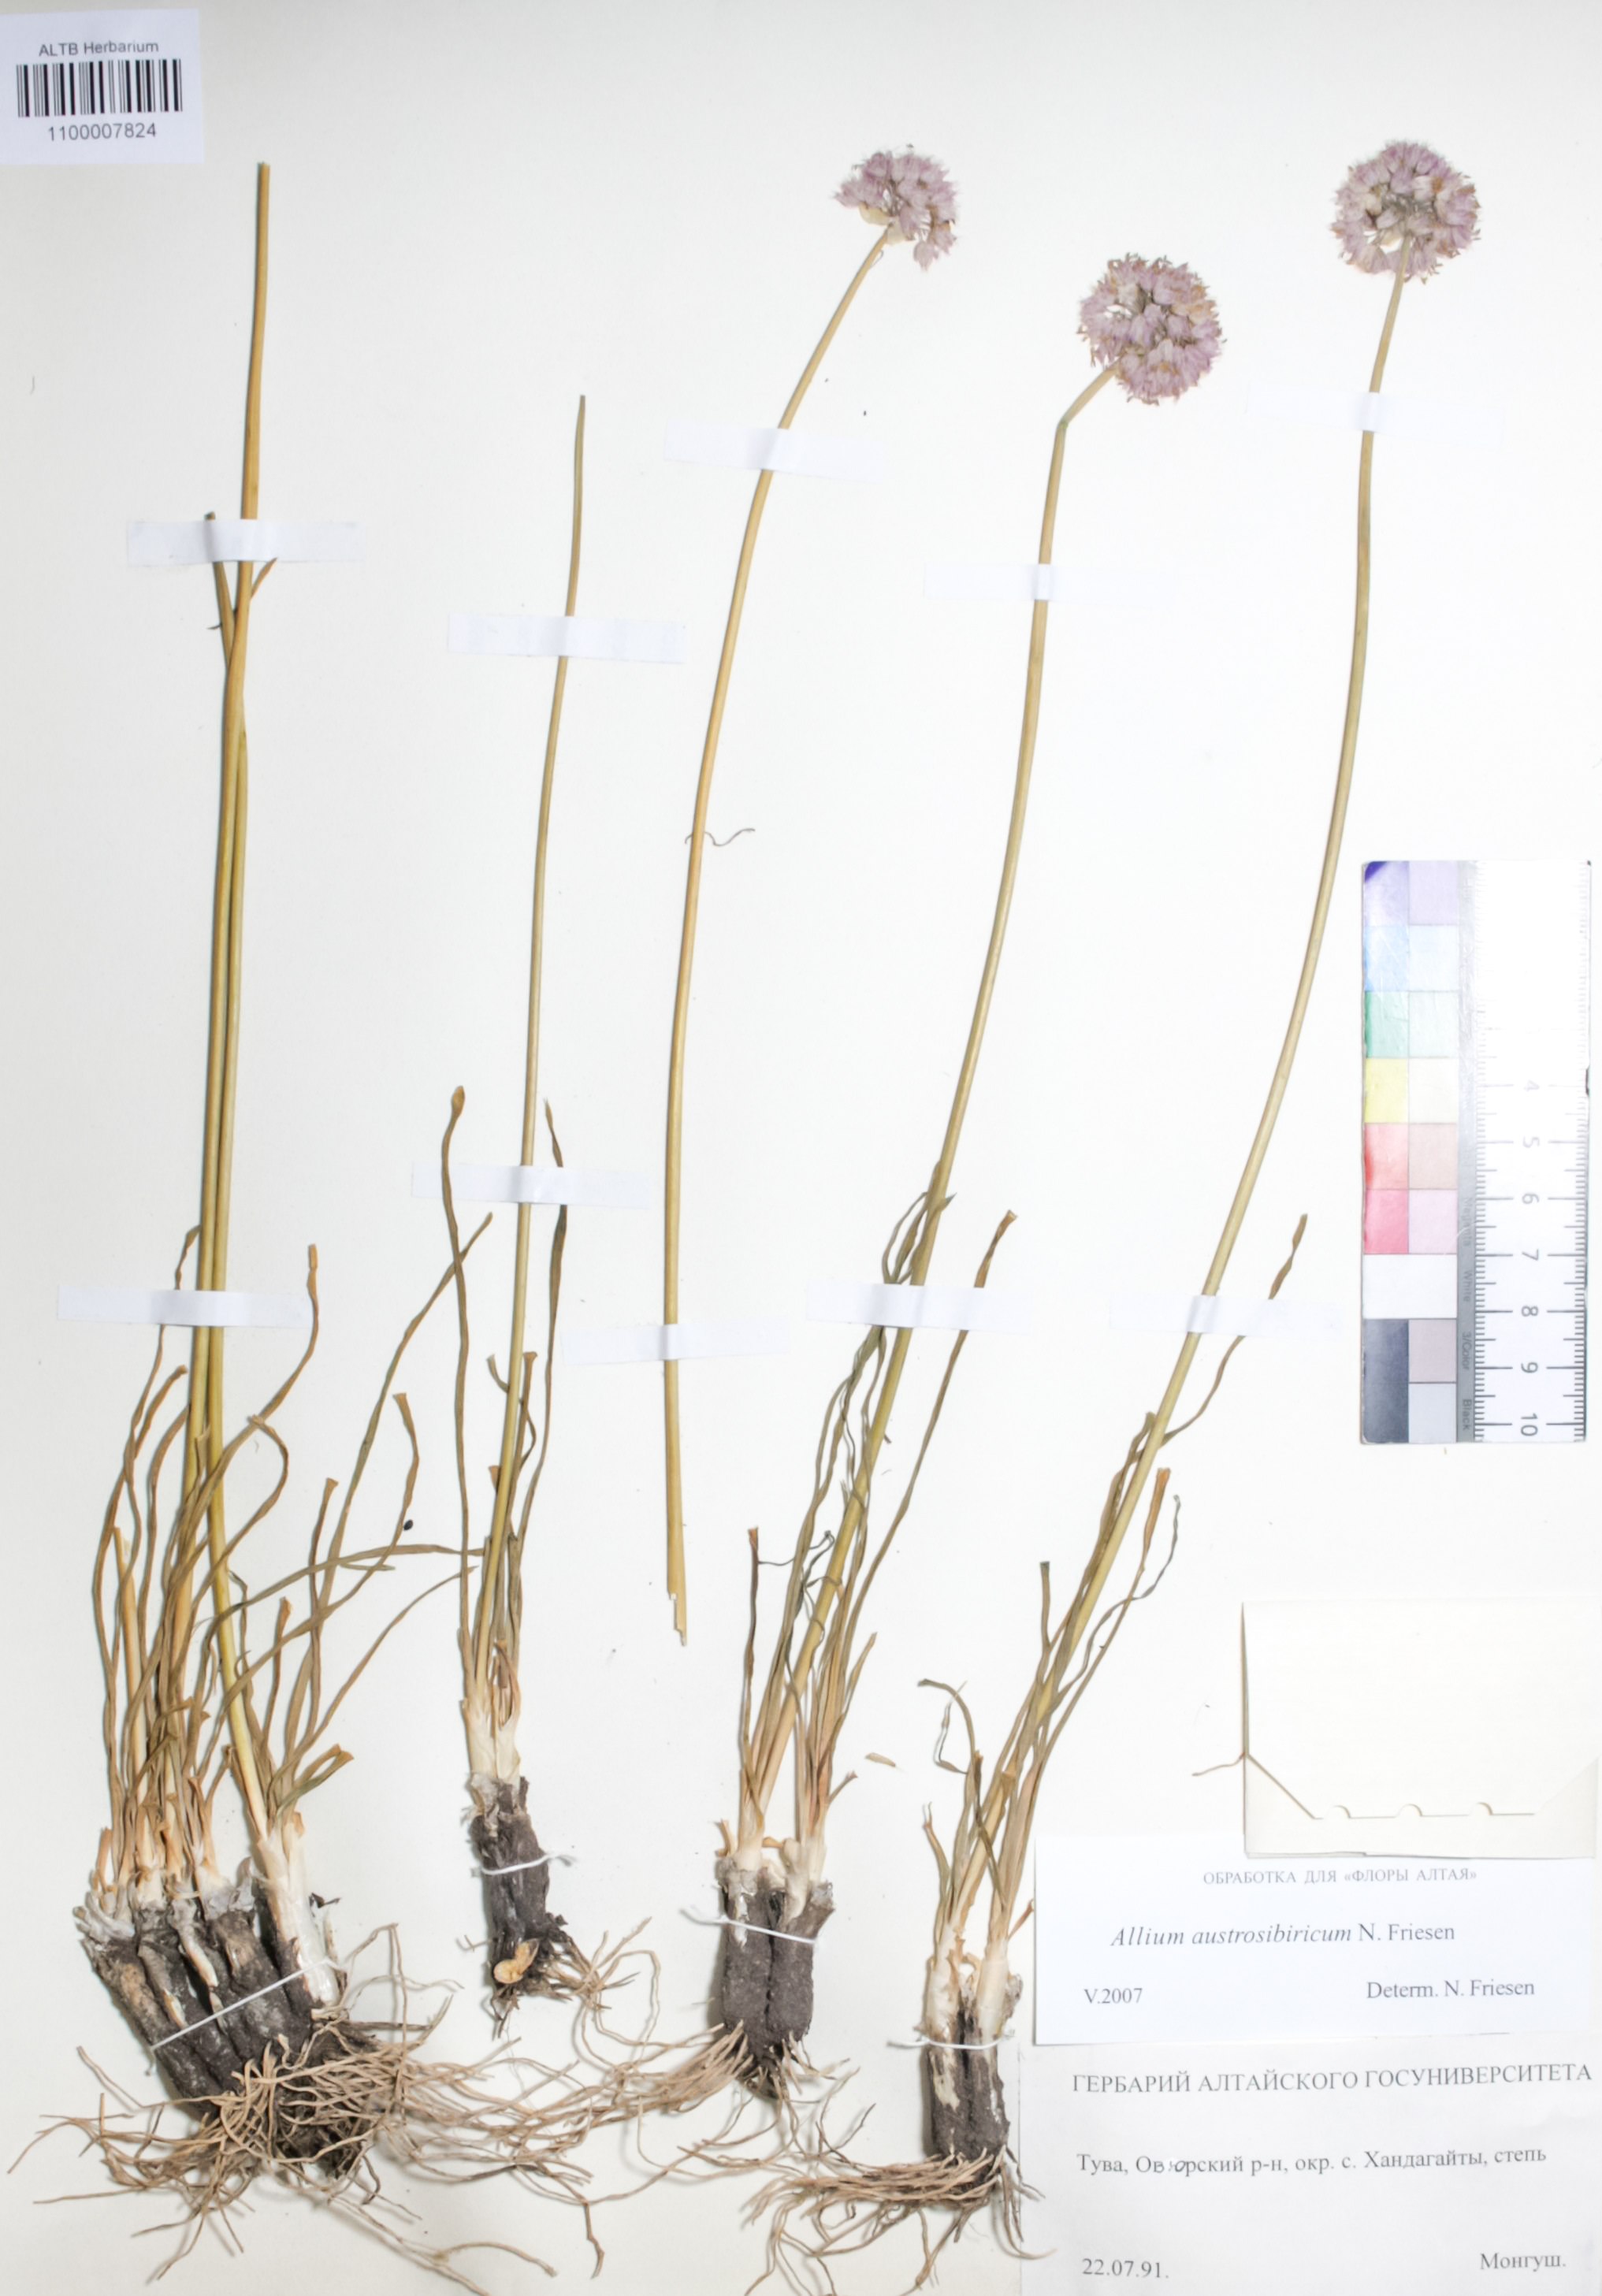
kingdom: Plantae
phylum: Tracheophyta
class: Liliopsida
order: Asparagales
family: Amaryllidaceae
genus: Allium
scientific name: Allium austrosibiricum
